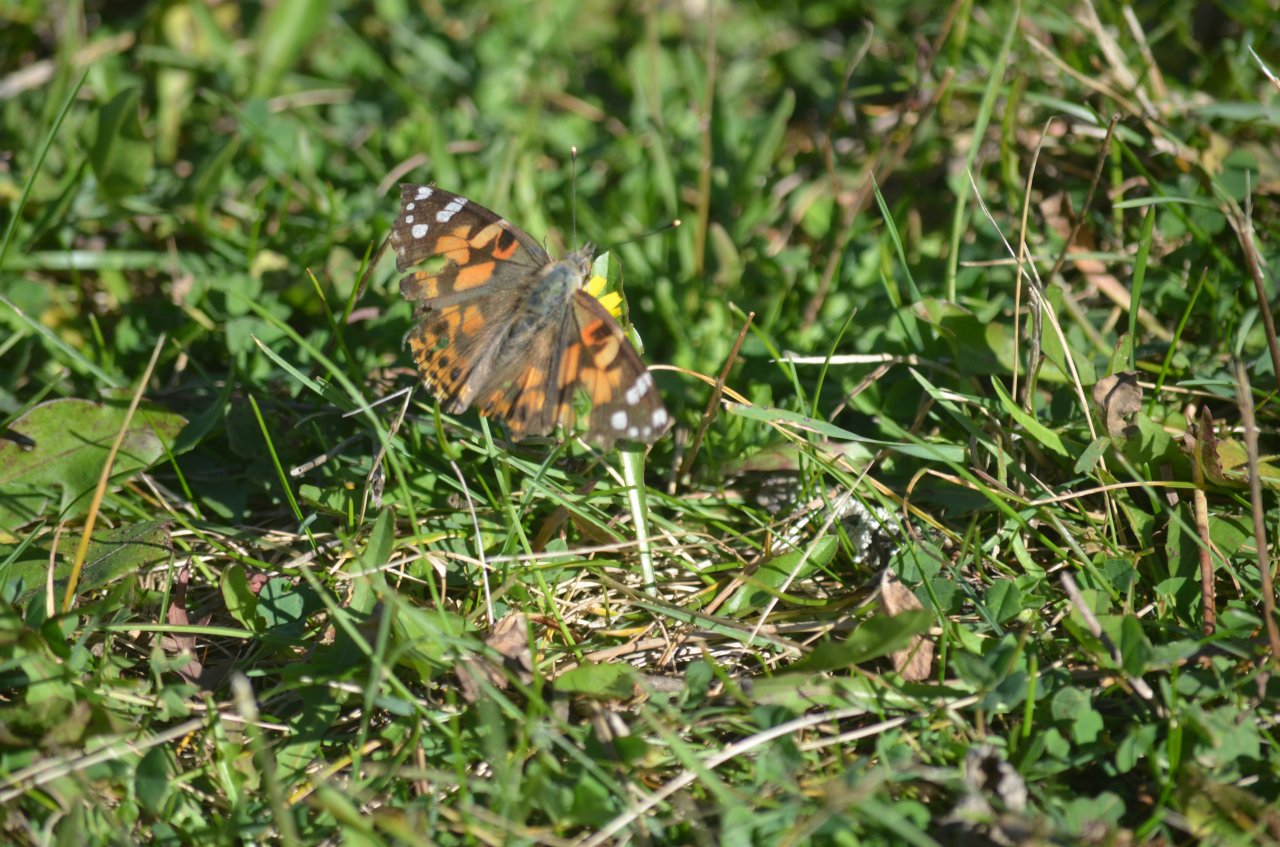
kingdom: Animalia
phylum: Arthropoda
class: Insecta
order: Lepidoptera
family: Nymphalidae
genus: Vanessa
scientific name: Vanessa cardui
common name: Painted Lady
